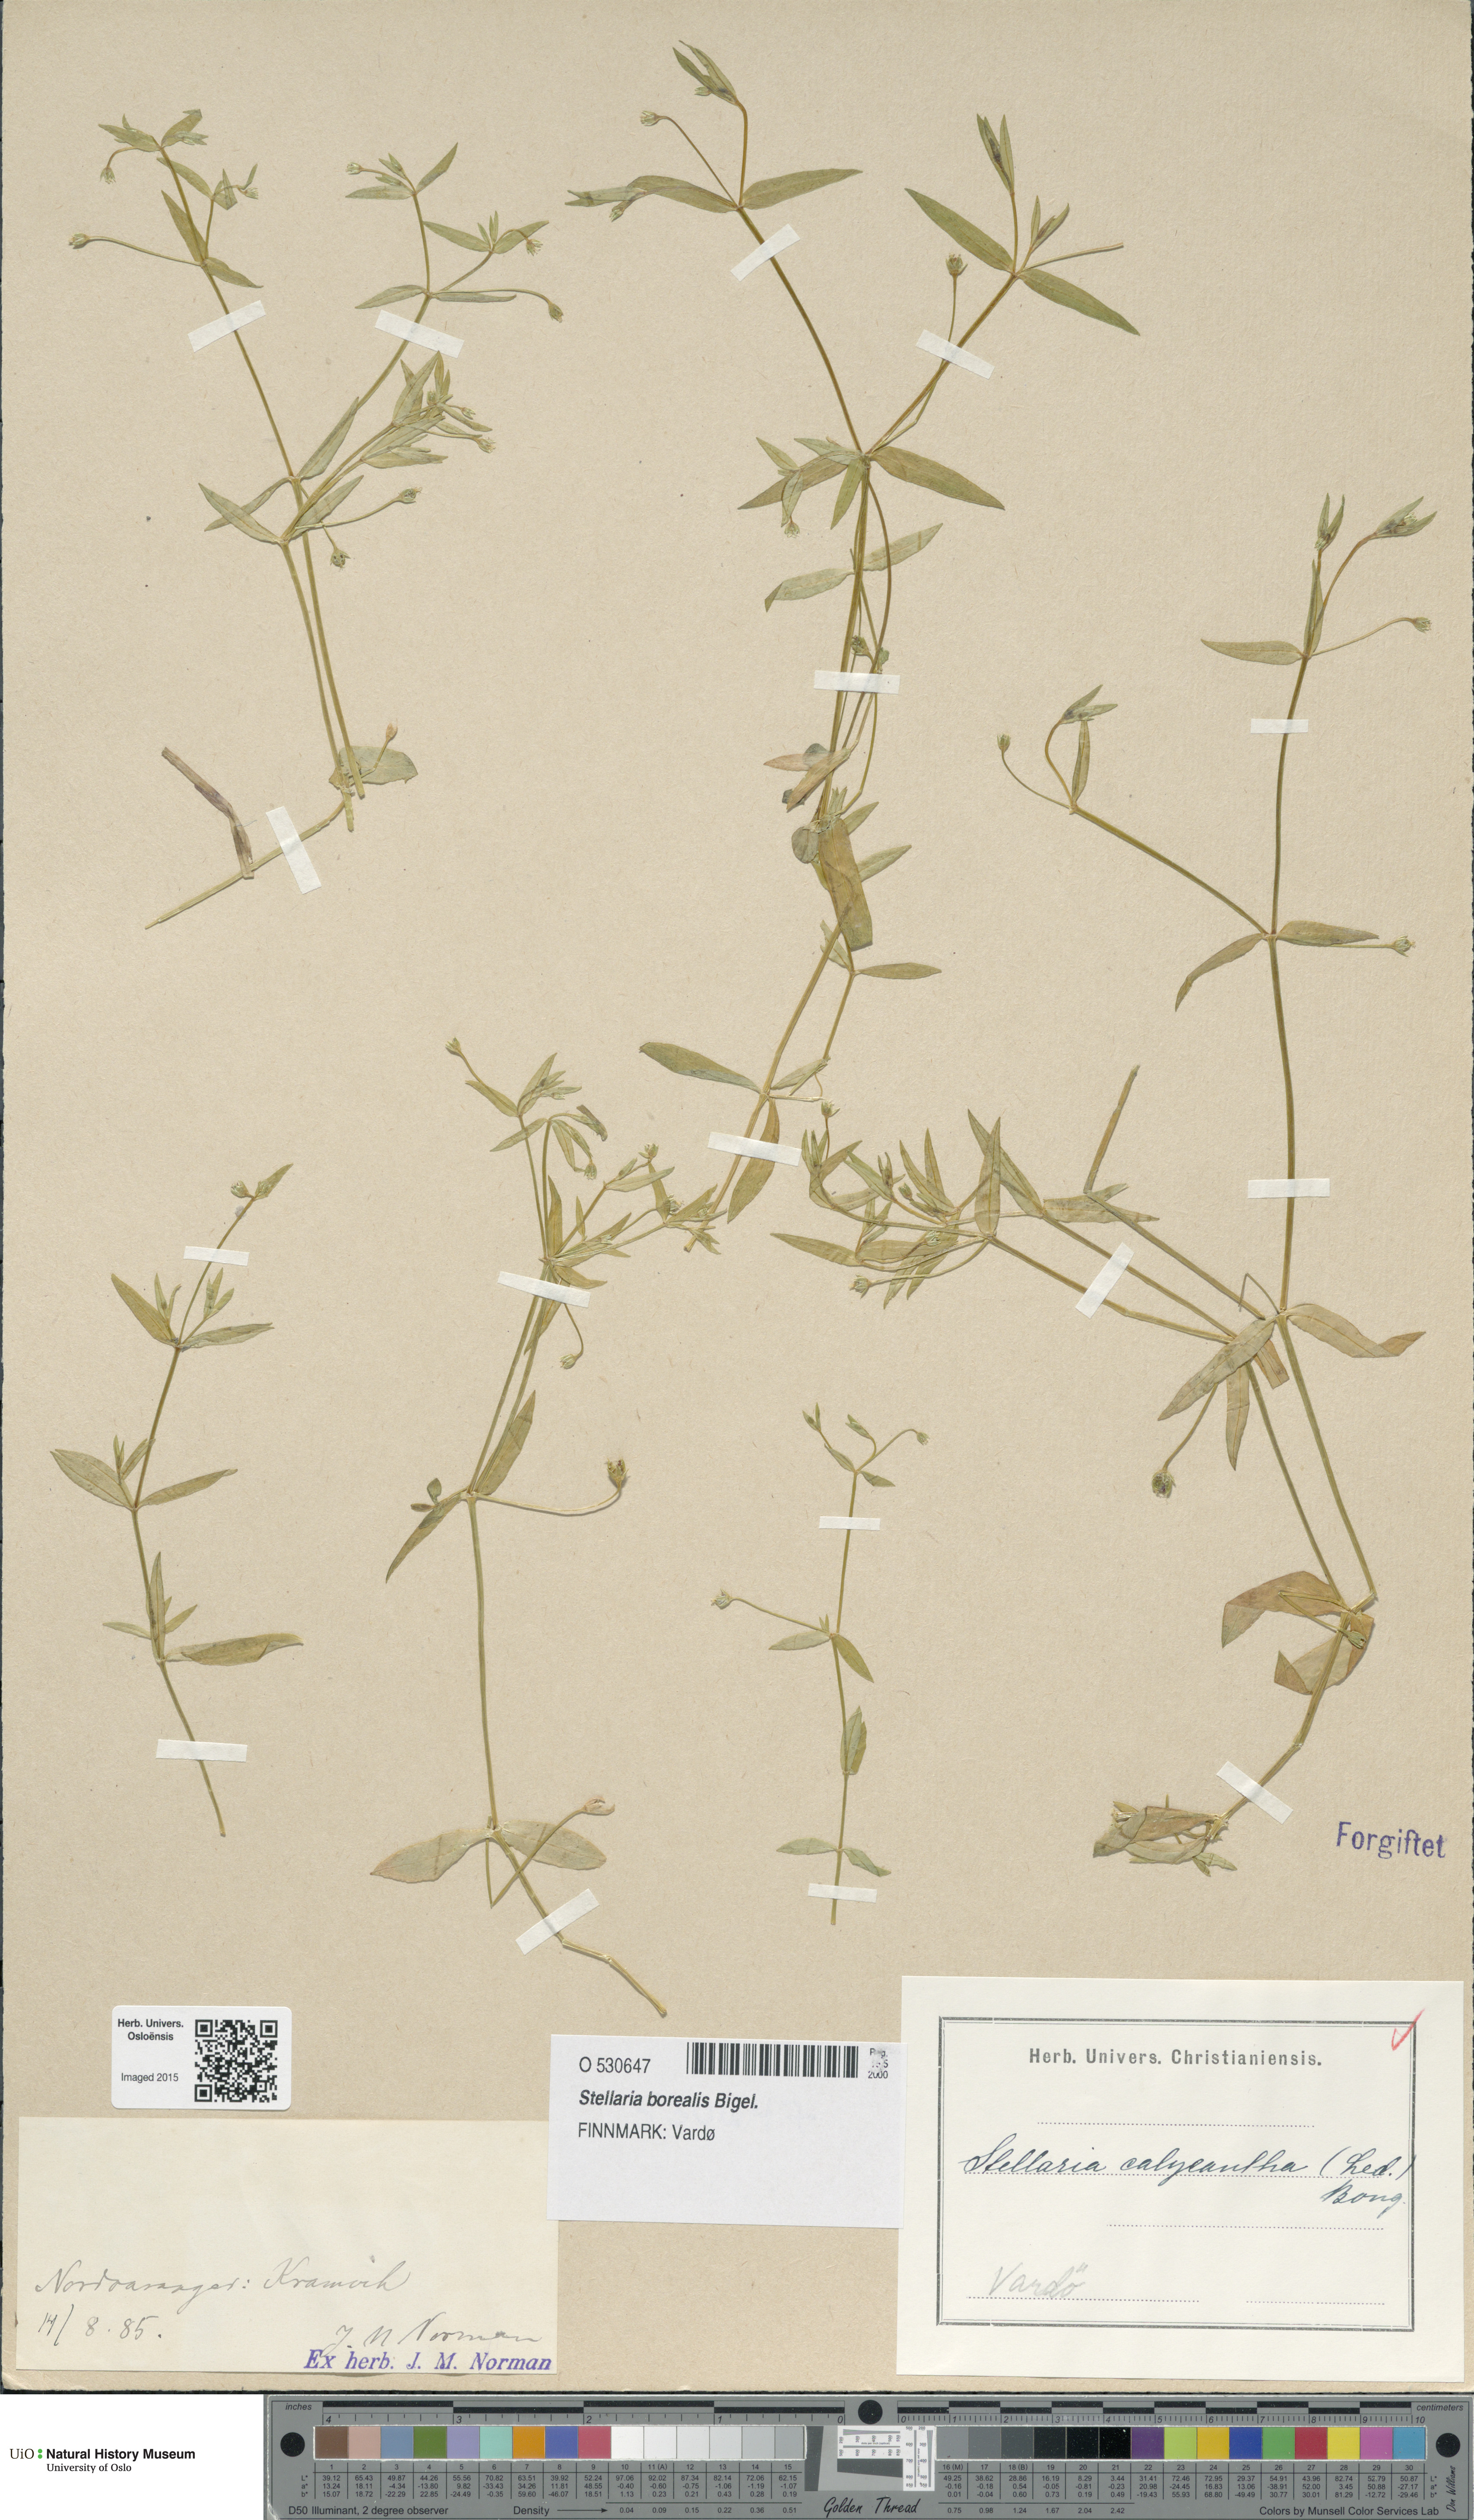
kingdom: Plantae
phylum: Tracheophyta
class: Magnoliopsida
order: Caryophyllales
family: Caryophyllaceae
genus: Stellaria
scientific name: Stellaria borealis
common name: Boreal starwort
